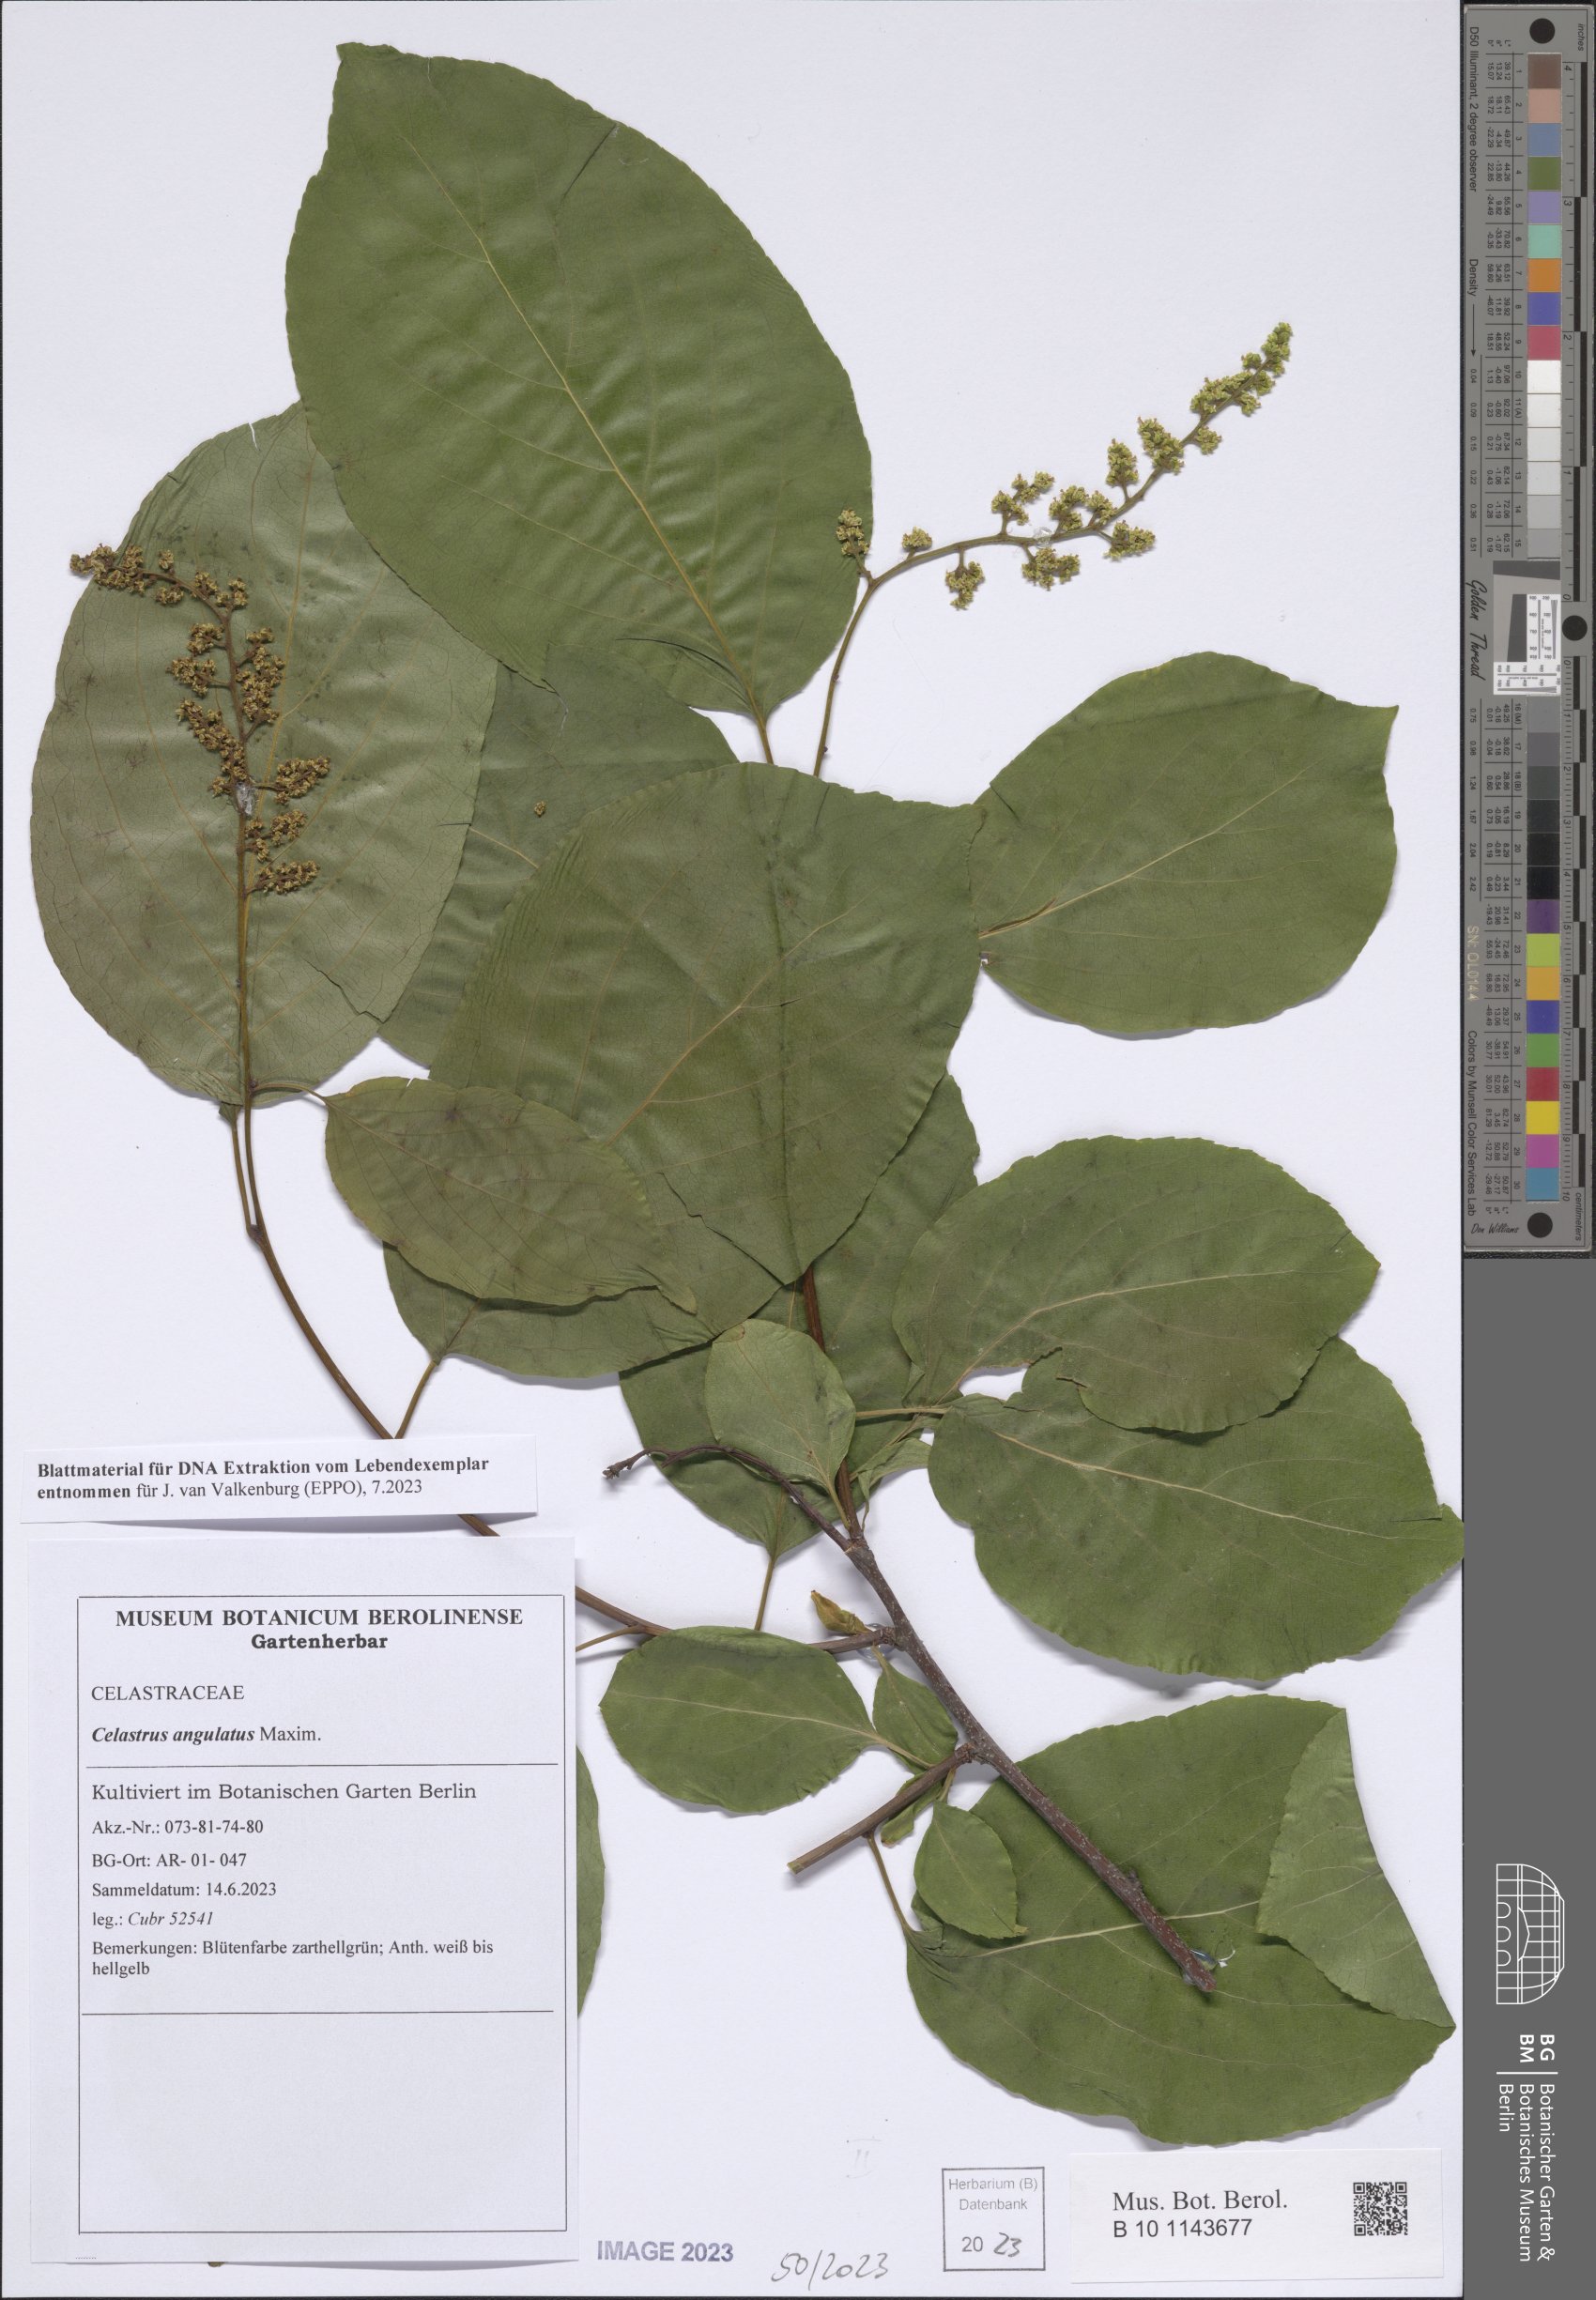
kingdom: Plantae
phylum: Tracheophyta
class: Magnoliopsida
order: Celastrales
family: Celastraceae
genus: Celastrus
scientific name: Celastrus angulatus
